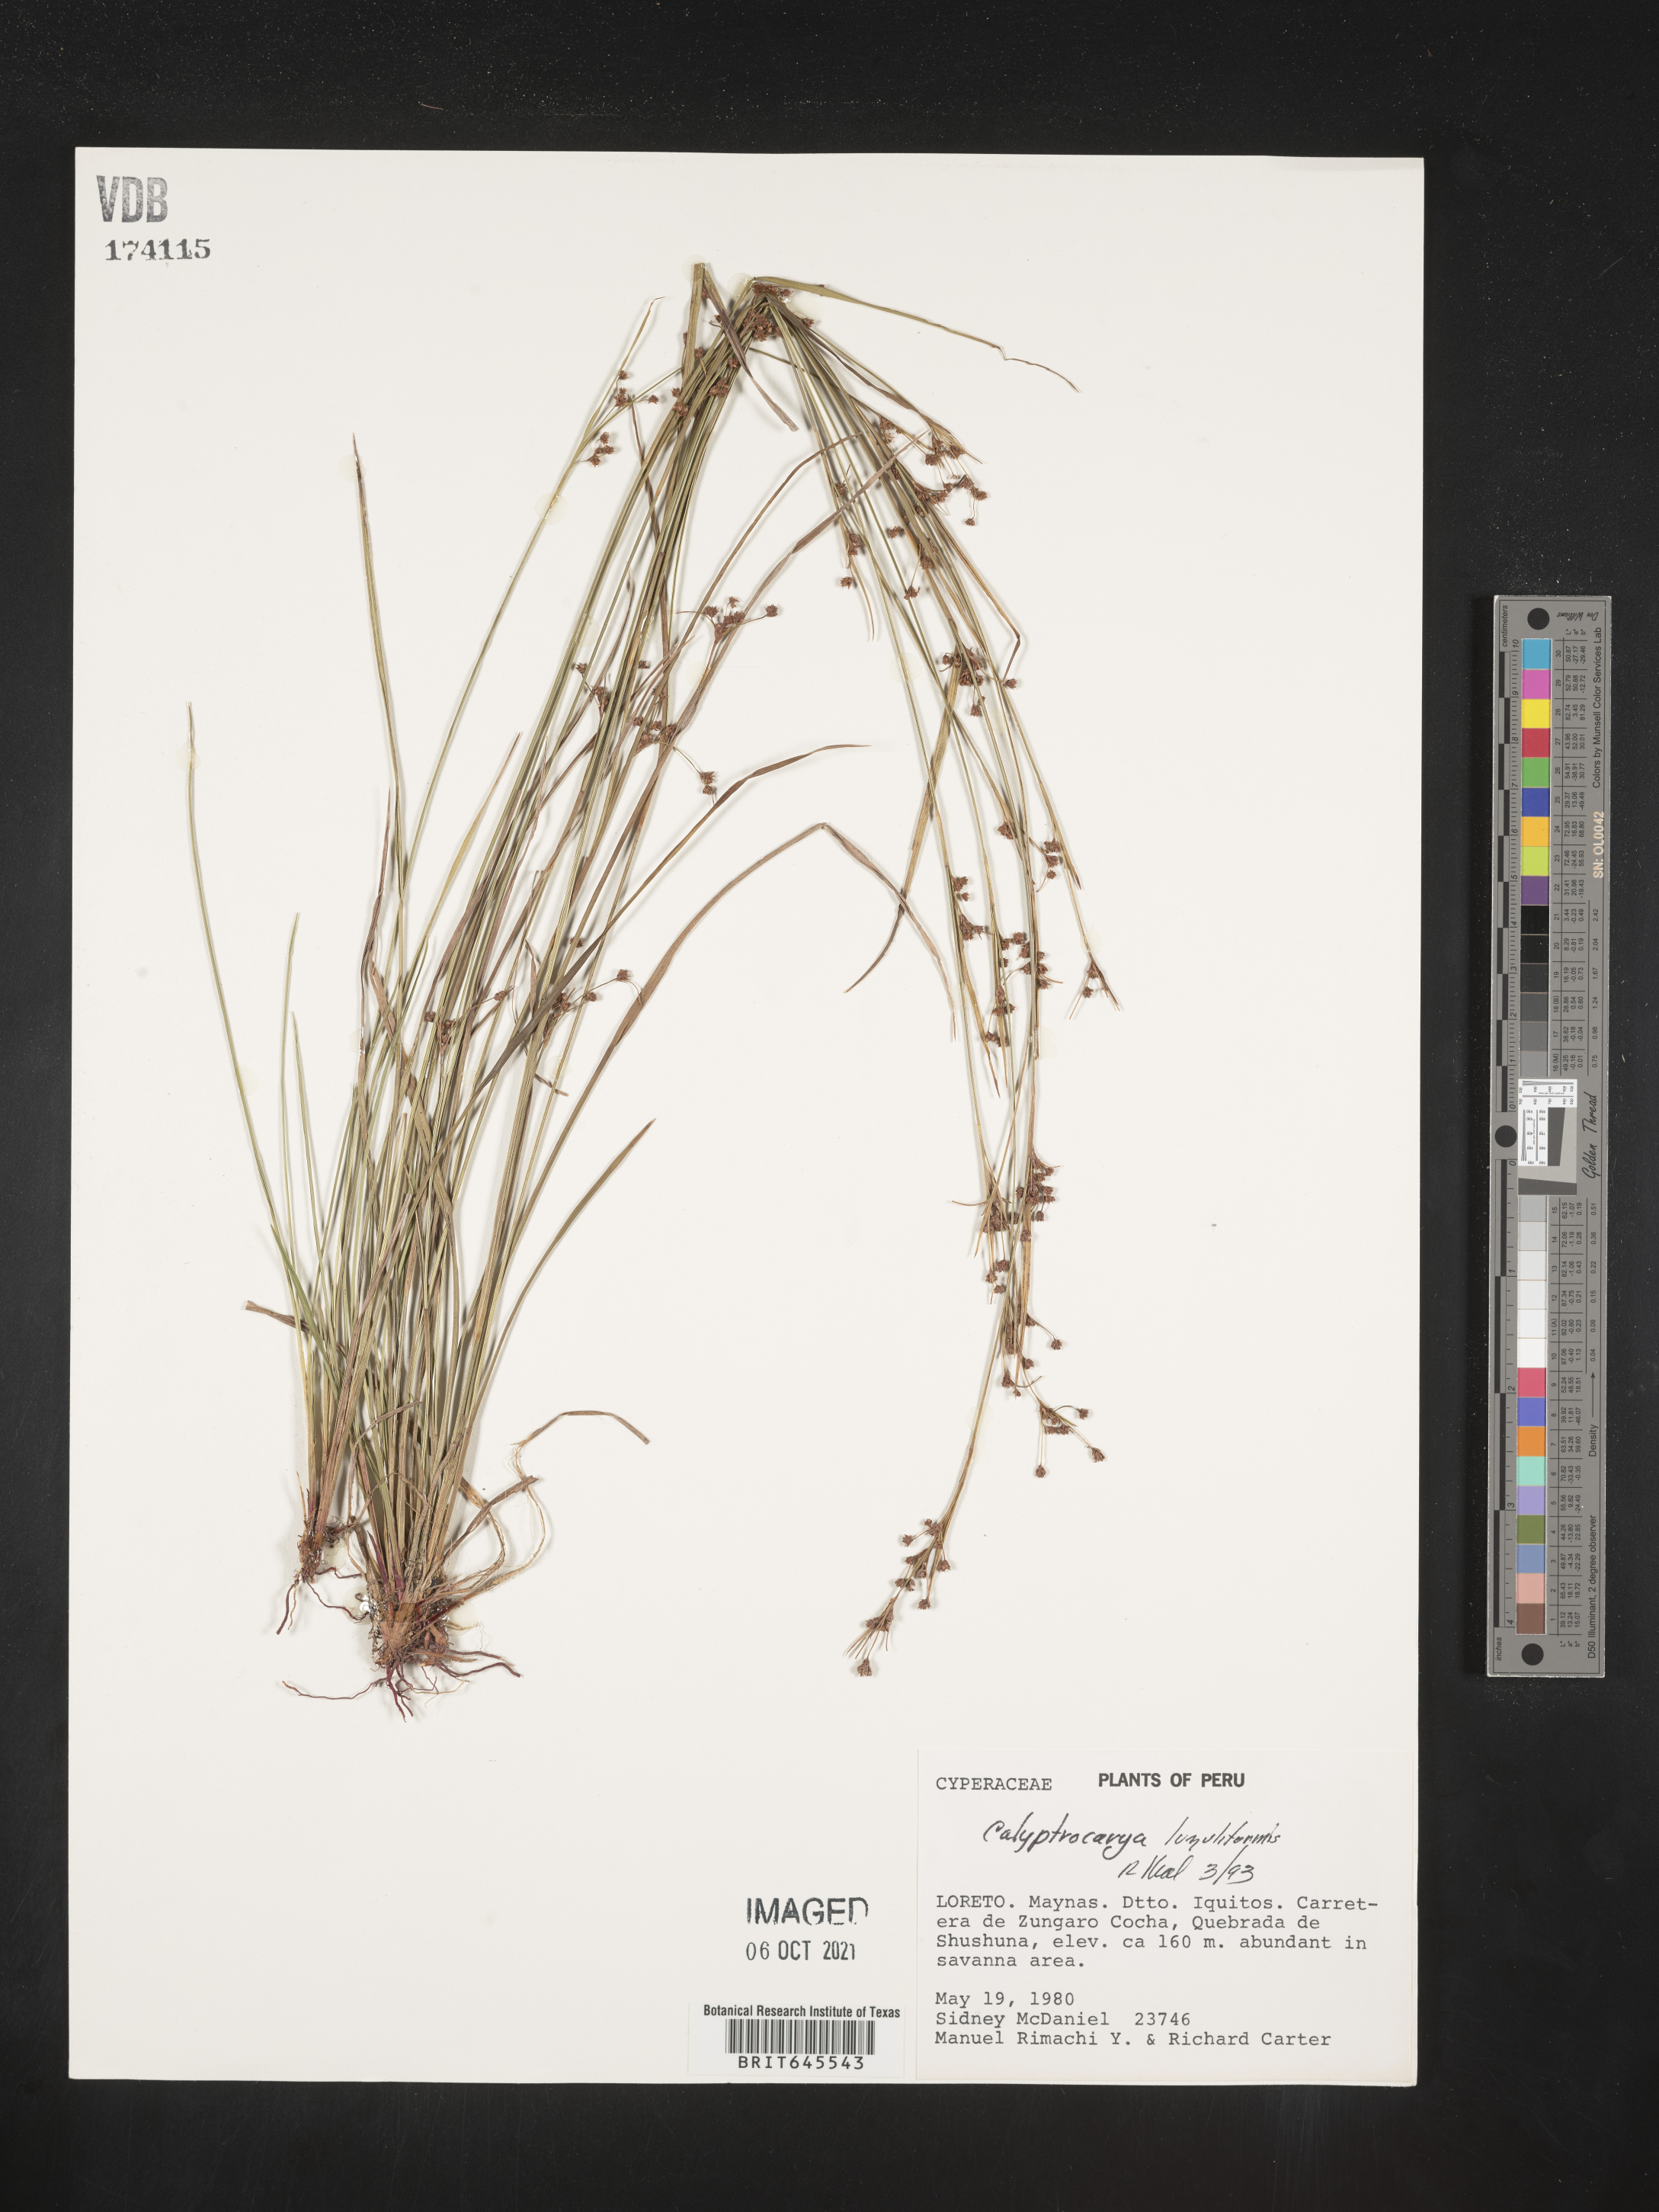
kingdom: Plantae
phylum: Tracheophyta
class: Liliopsida
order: Poales
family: Cyperaceae
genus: Calyptrocarya
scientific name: Calyptrocarya luzuliformis
